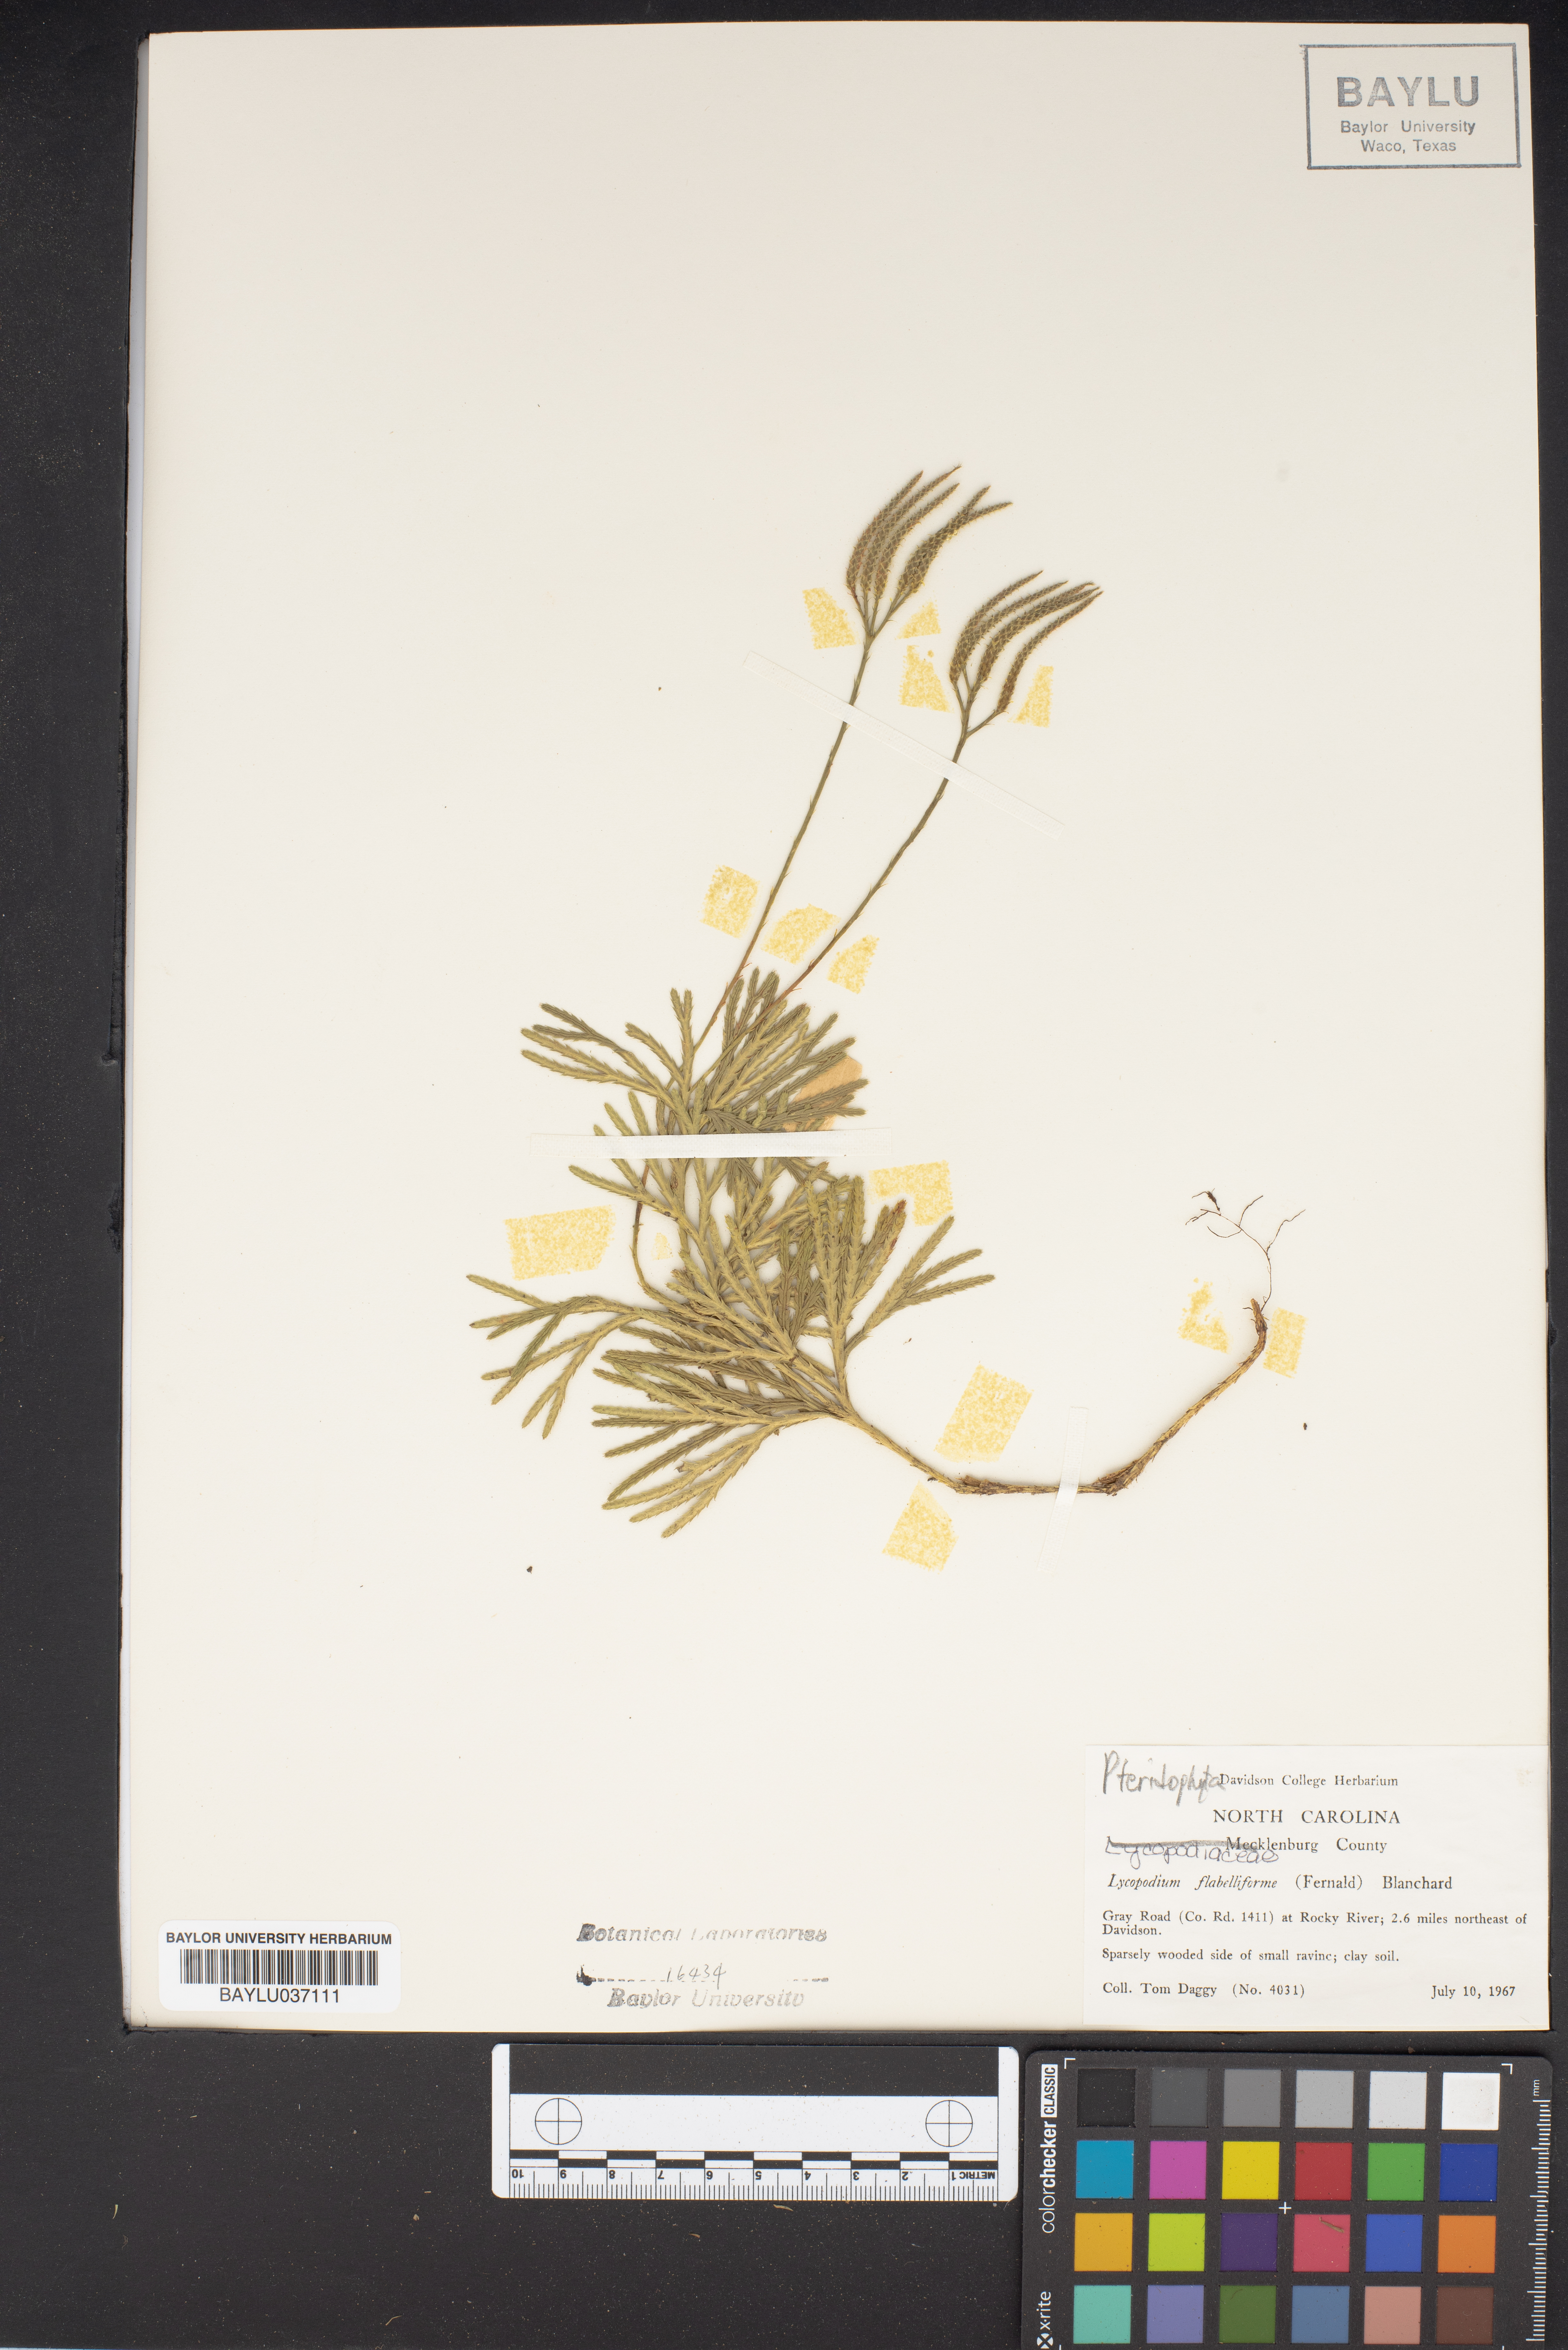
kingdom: Plantae
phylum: Tracheophyta
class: Lycopodiopsida
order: Lycopodiales
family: Lycopodiaceae
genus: Diphasiastrum
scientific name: Diphasiastrum digitatum
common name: Southern running-pine
